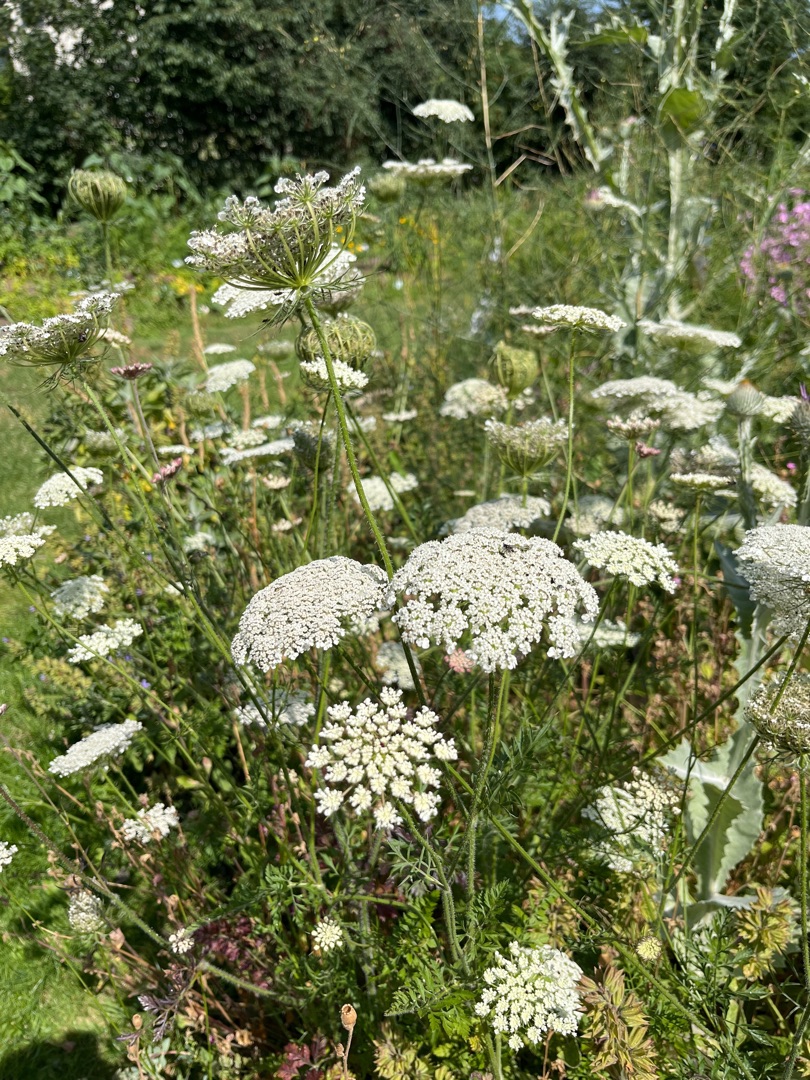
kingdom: Plantae
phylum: Tracheophyta
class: Magnoliopsida
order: Apiales
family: Apiaceae
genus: Daucus
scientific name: Daucus carota
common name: Vild gulerod
